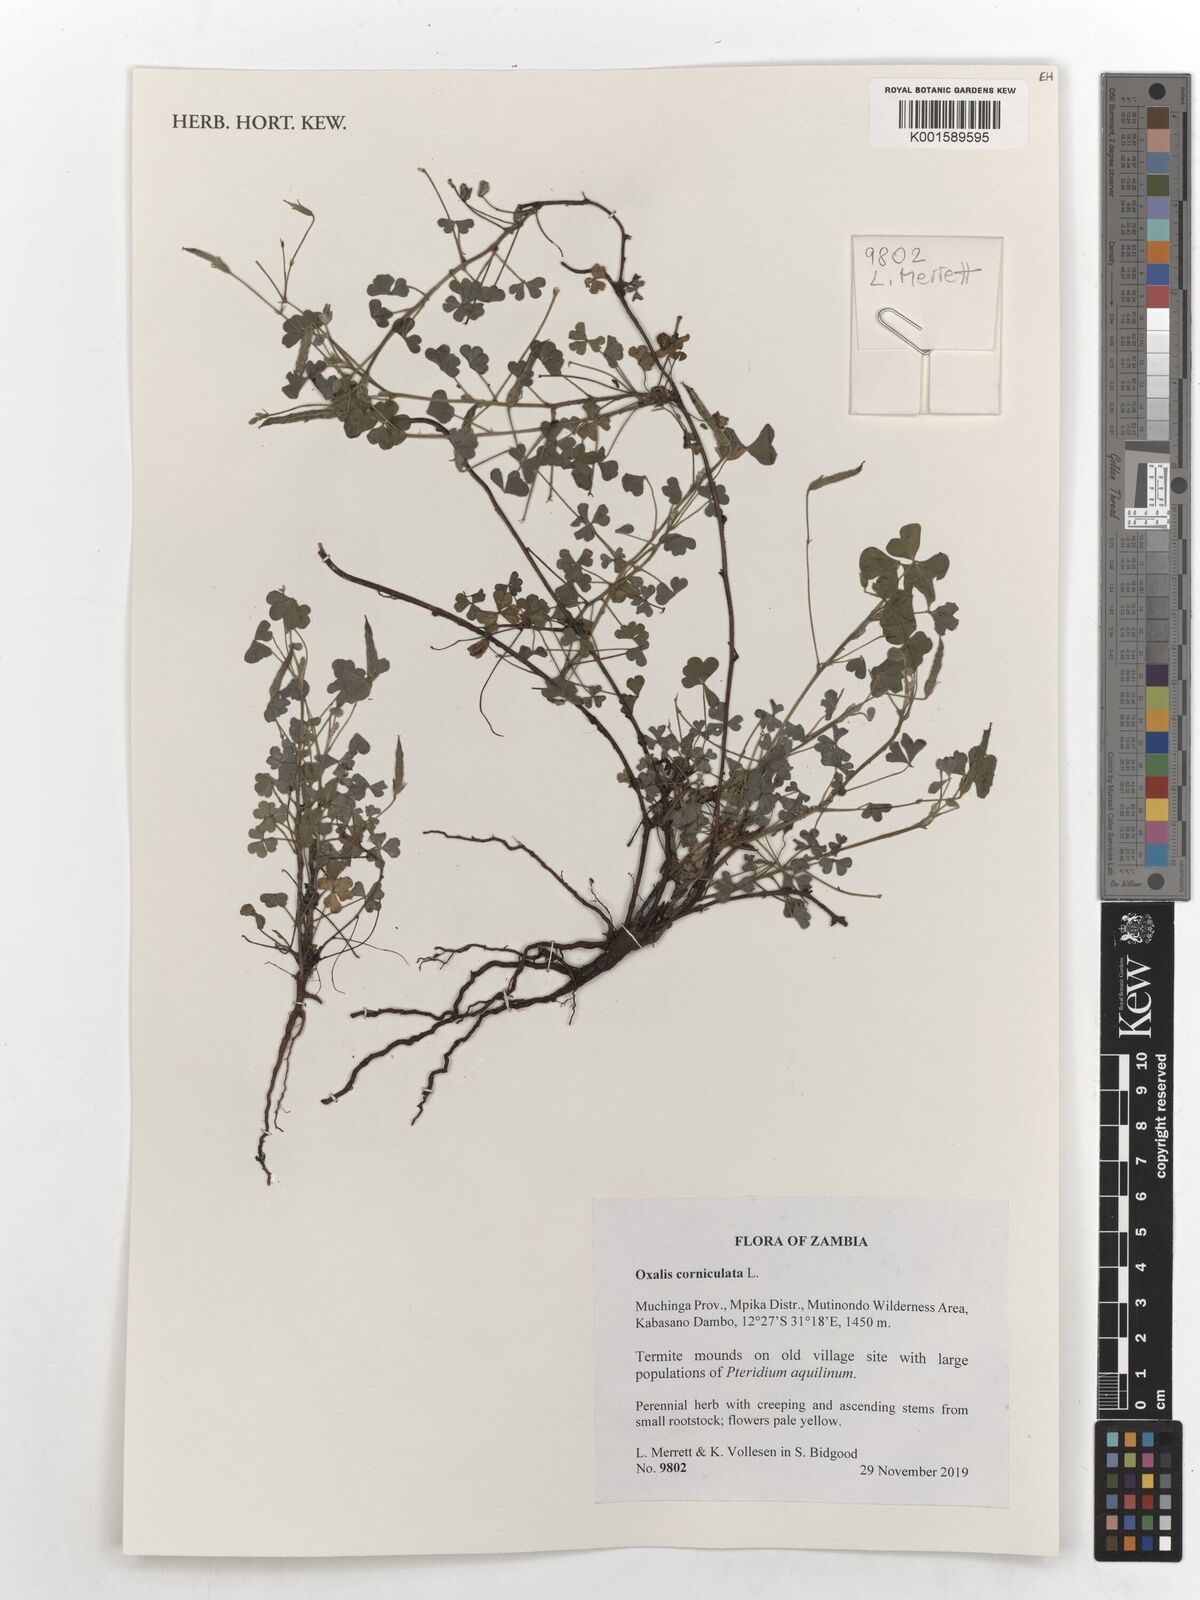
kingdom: Plantae
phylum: Tracheophyta
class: Magnoliopsida
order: Oxalidales
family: Oxalidaceae
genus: Oxalis
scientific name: Oxalis corniculata
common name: Procumbent yellow-sorrel
